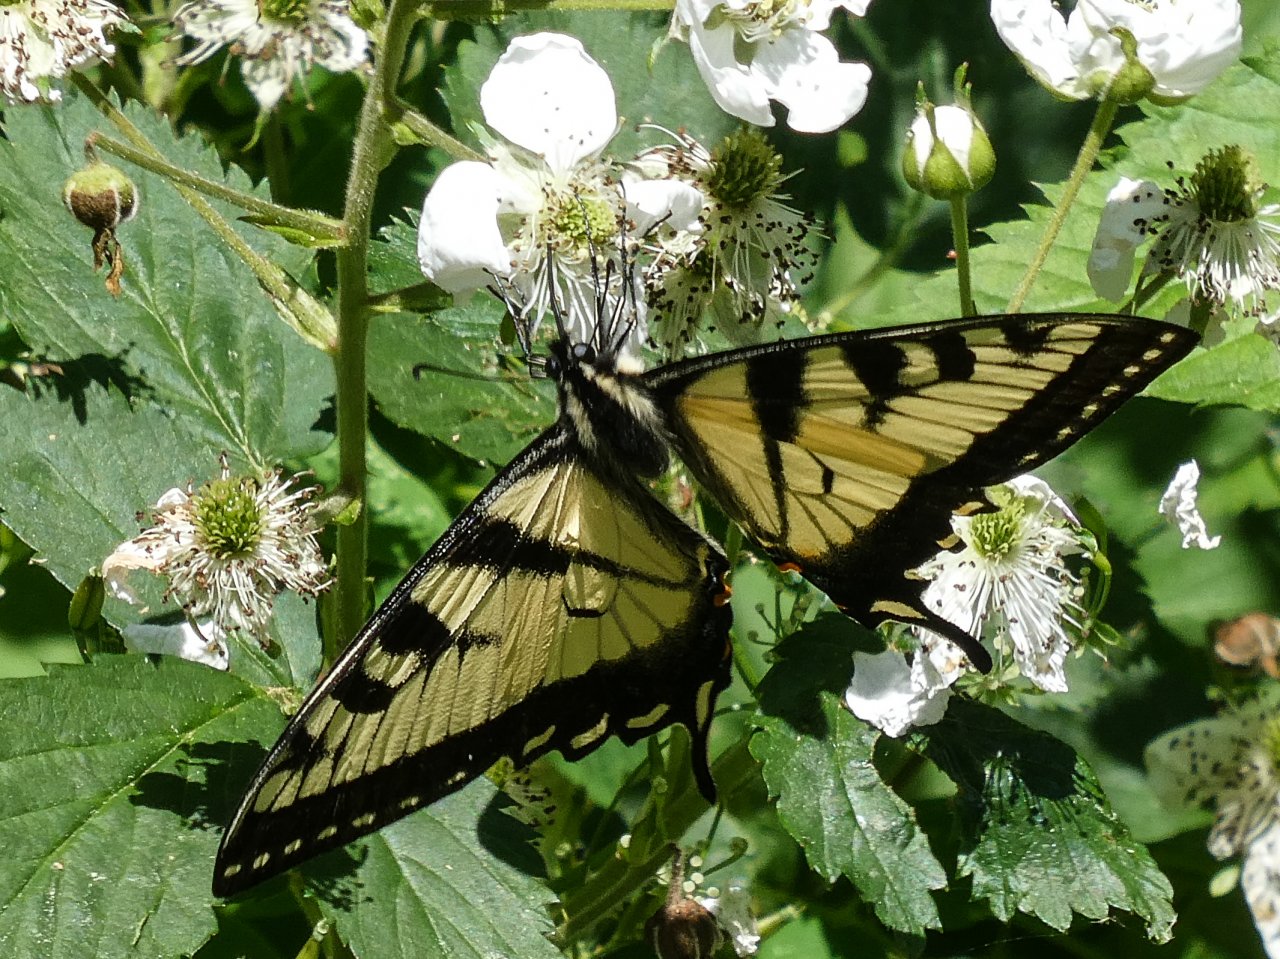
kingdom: Animalia
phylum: Arthropoda
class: Insecta
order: Lepidoptera
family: Papilionidae
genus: Pterourus
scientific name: Pterourus
